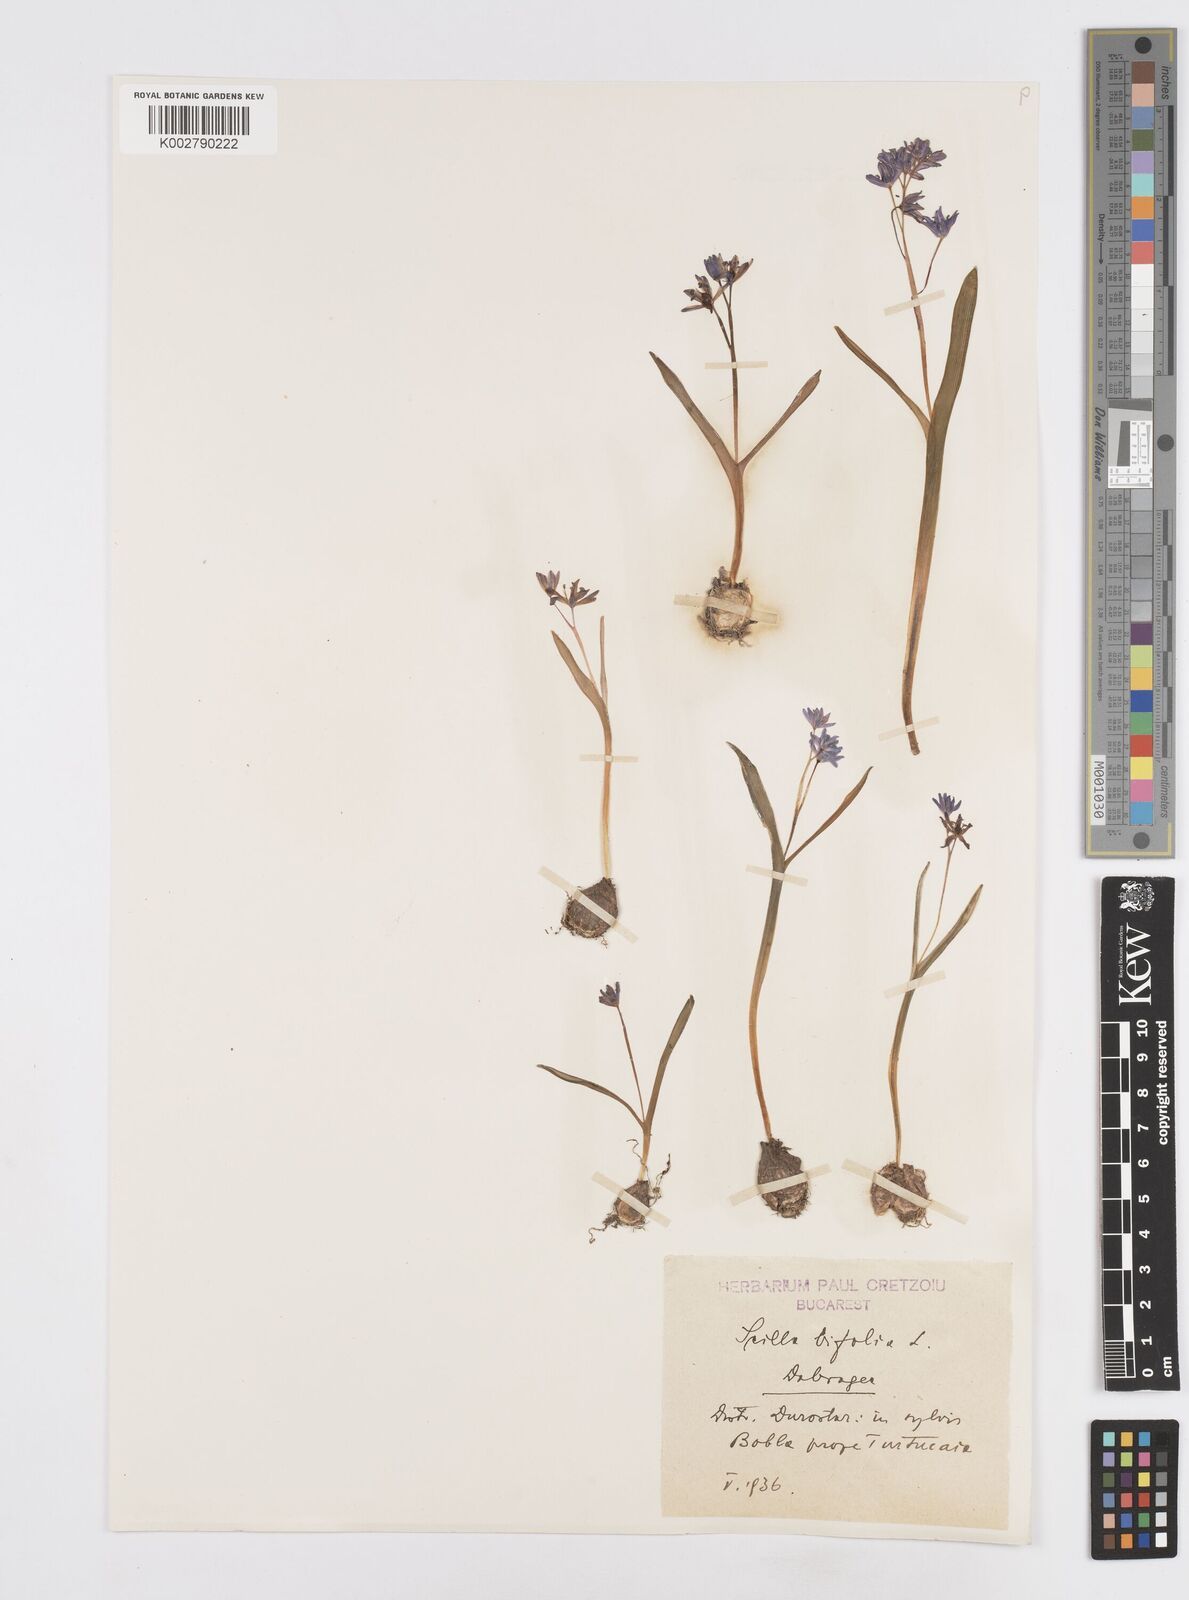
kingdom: Plantae
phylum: Tracheophyta
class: Liliopsida
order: Asparagales
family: Asparagaceae
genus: Scilla
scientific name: Scilla bifolia
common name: Alpine squill
